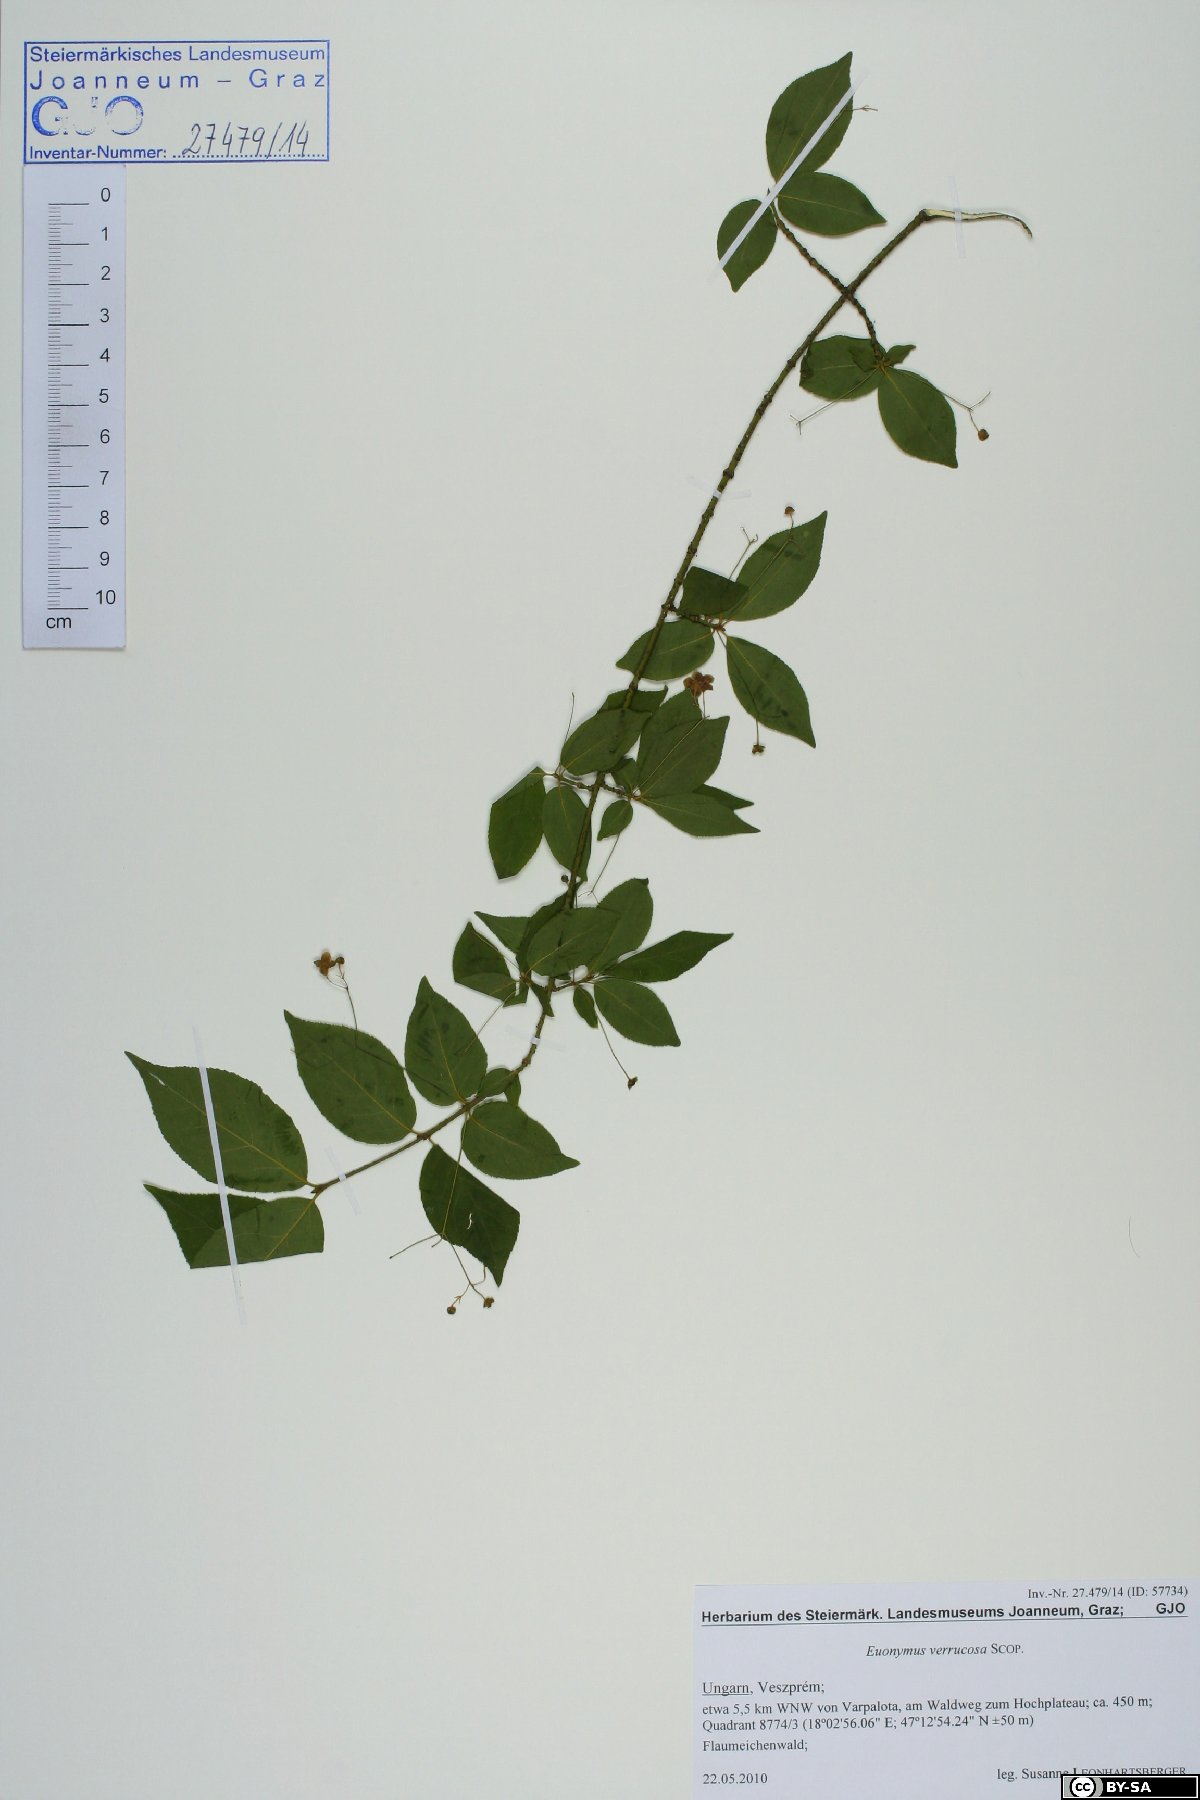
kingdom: Plantae
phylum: Tracheophyta
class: Magnoliopsida
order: Celastrales
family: Celastraceae
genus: Euonymus
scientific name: Euonymus verrucosus
